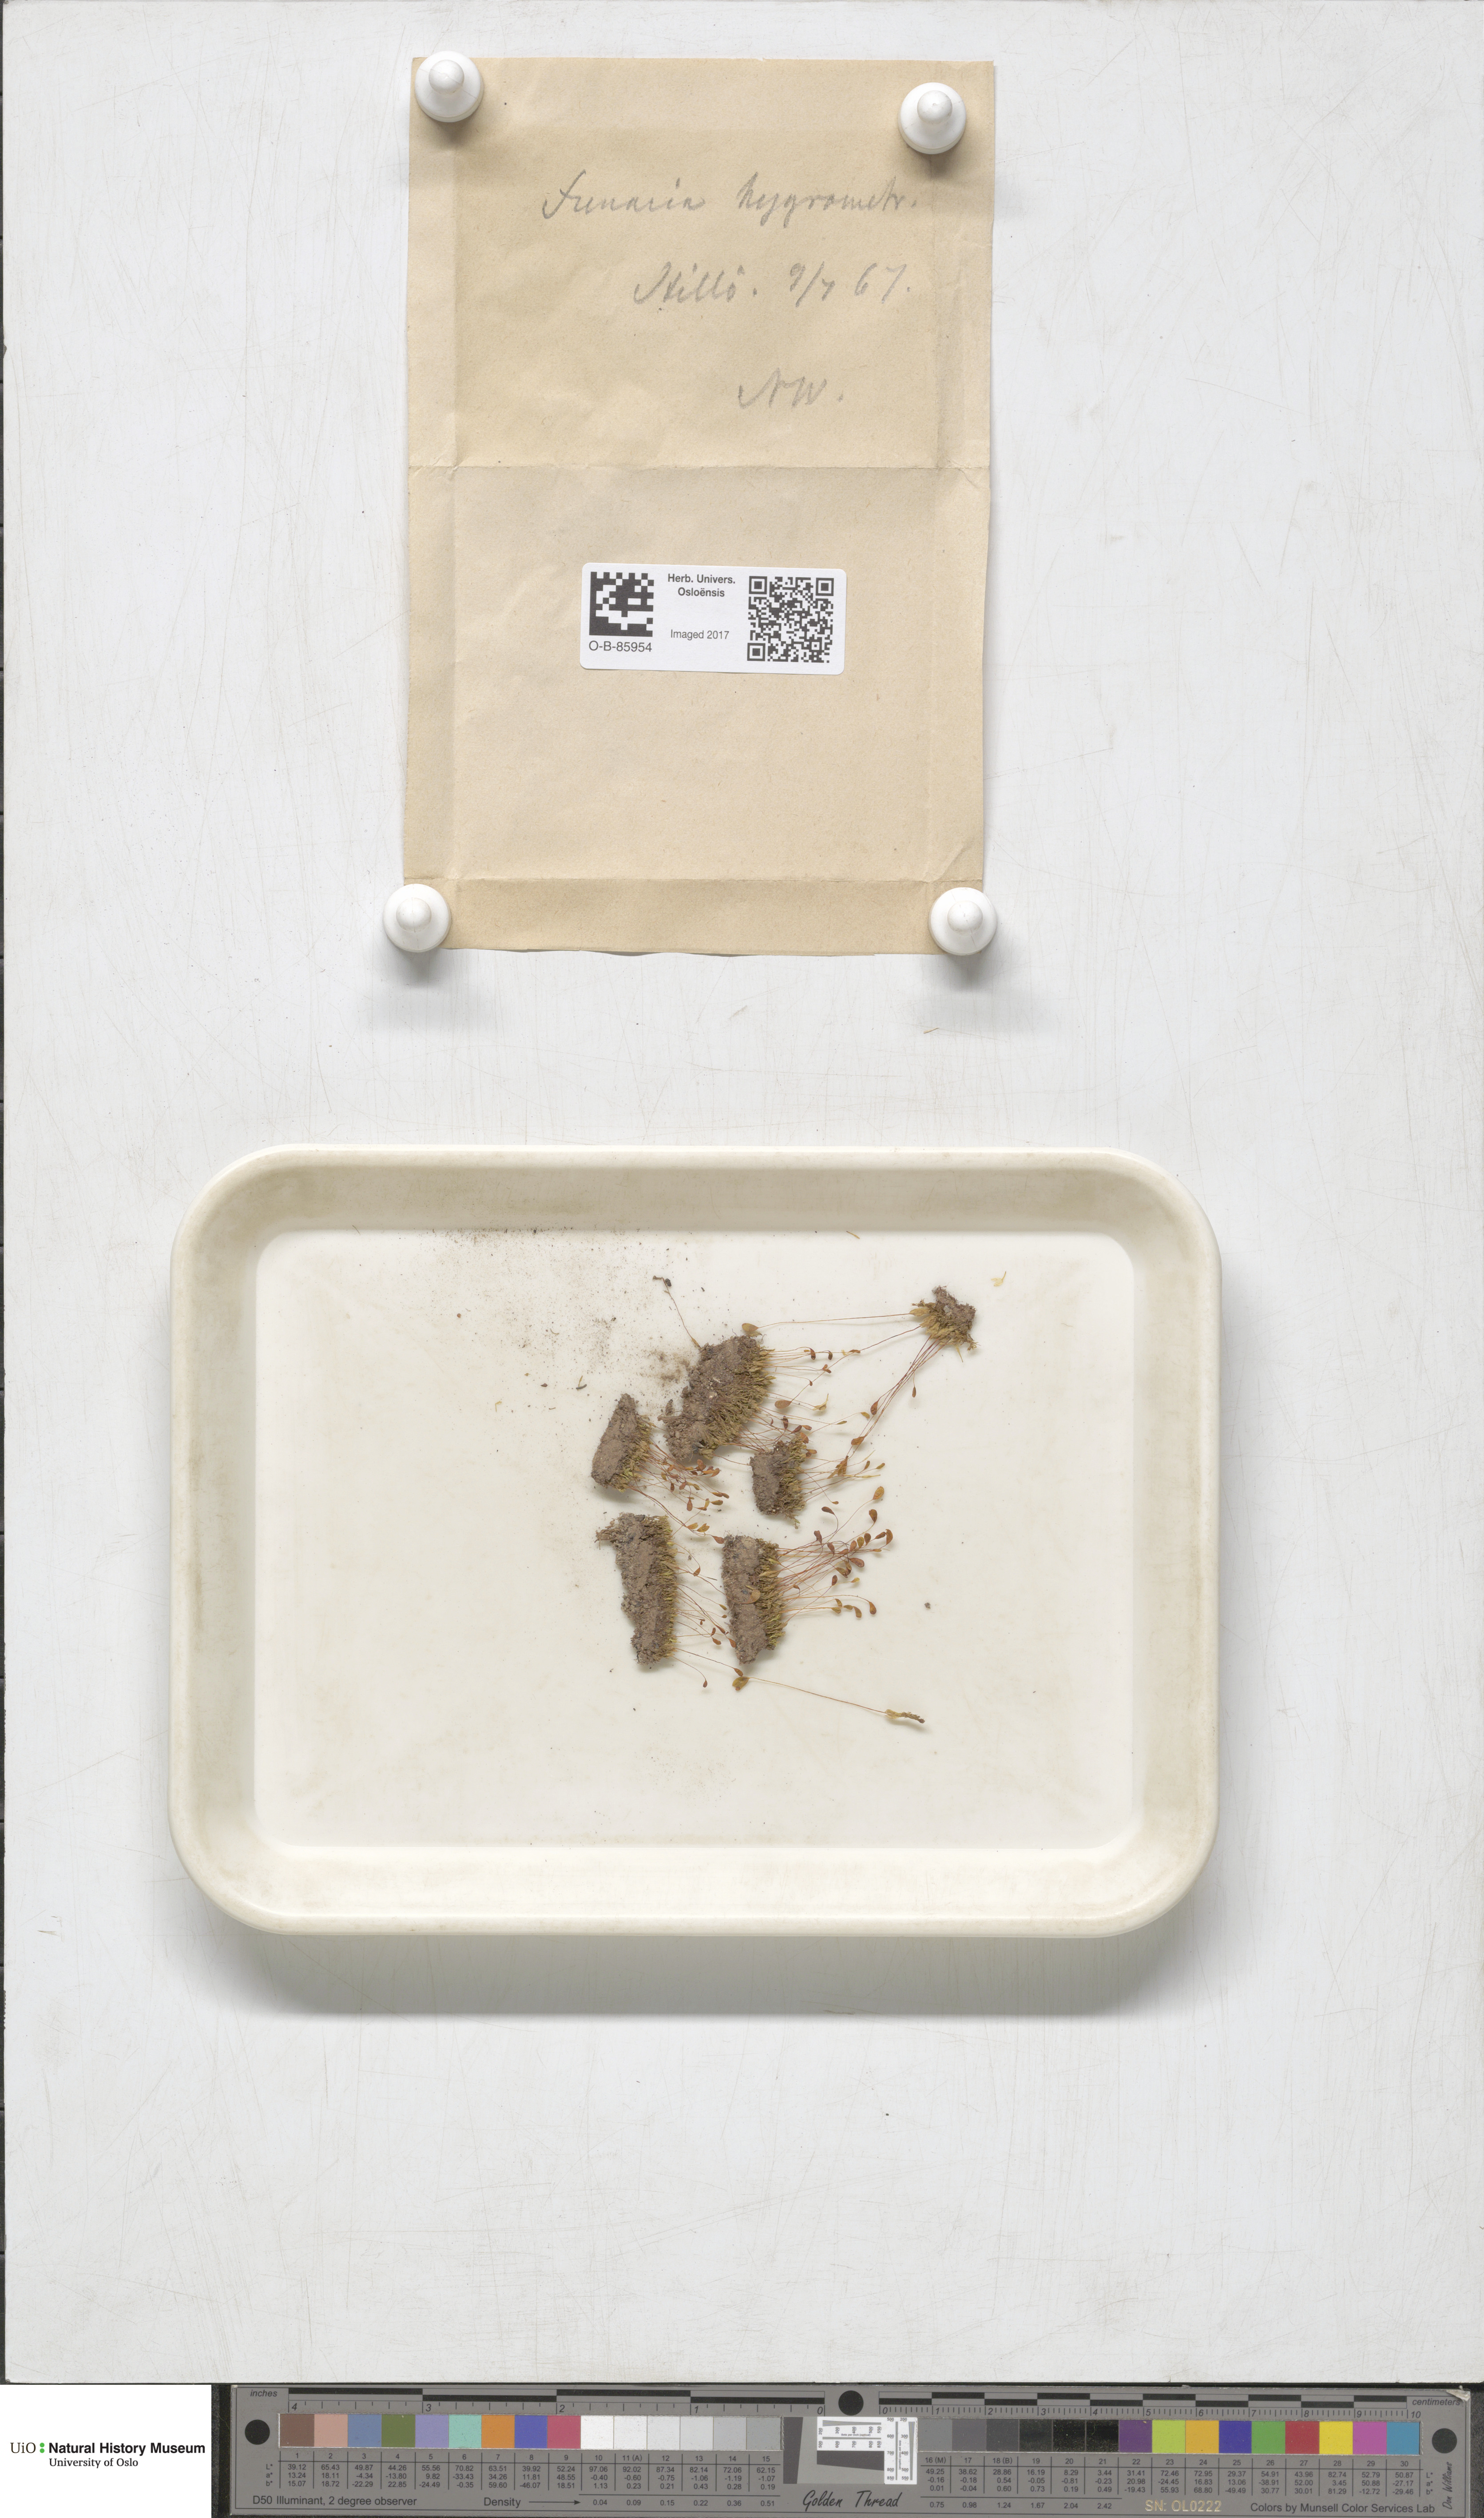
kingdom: Plantae
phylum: Bryophyta
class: Bryopsida
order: Funariales
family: Funariaceae
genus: Funaria
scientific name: Funaria hygrometrica
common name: Common cord moss
